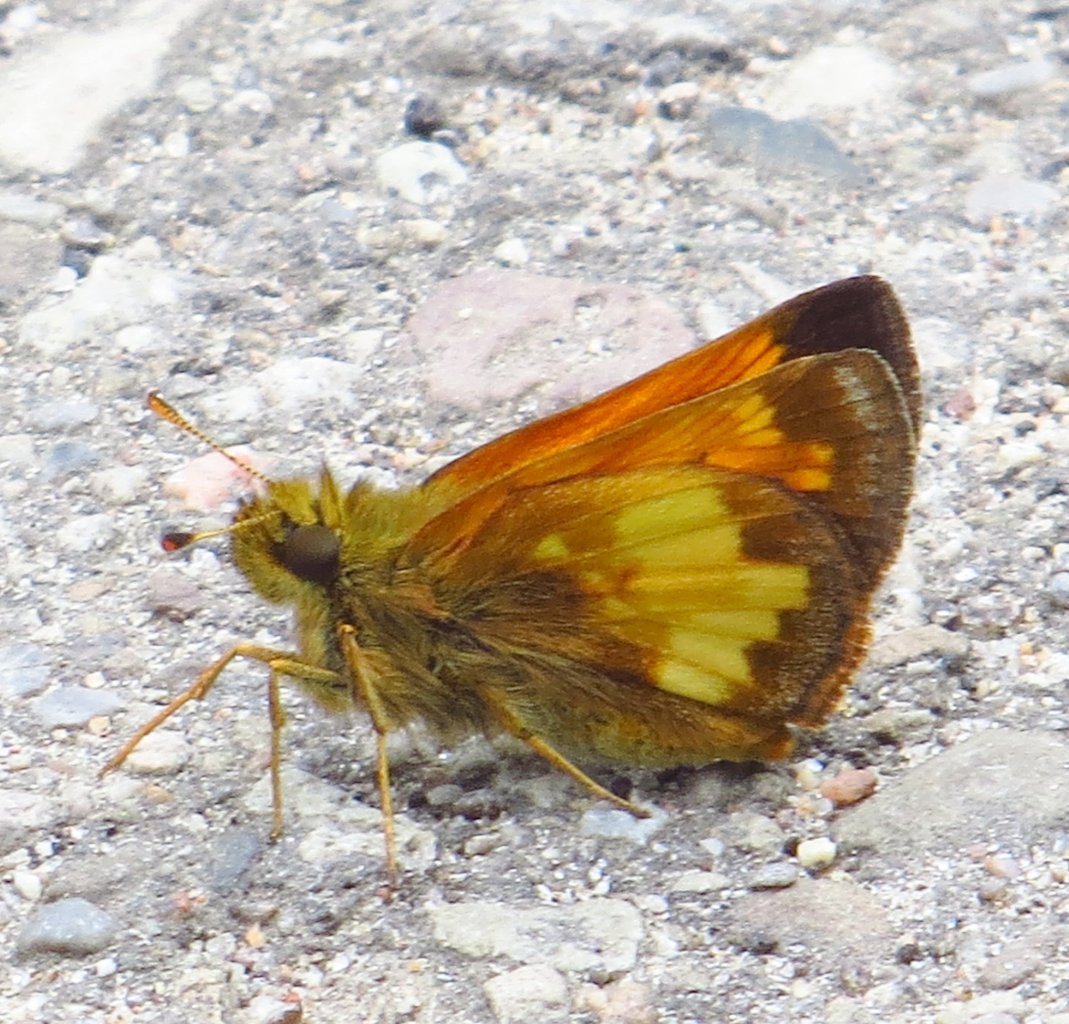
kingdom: Animalia
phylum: Arthropoda
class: Insecta
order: Lepidoptera
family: Hesperiidae
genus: Lon
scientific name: Lon hobomok
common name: Hobomok Skipper
